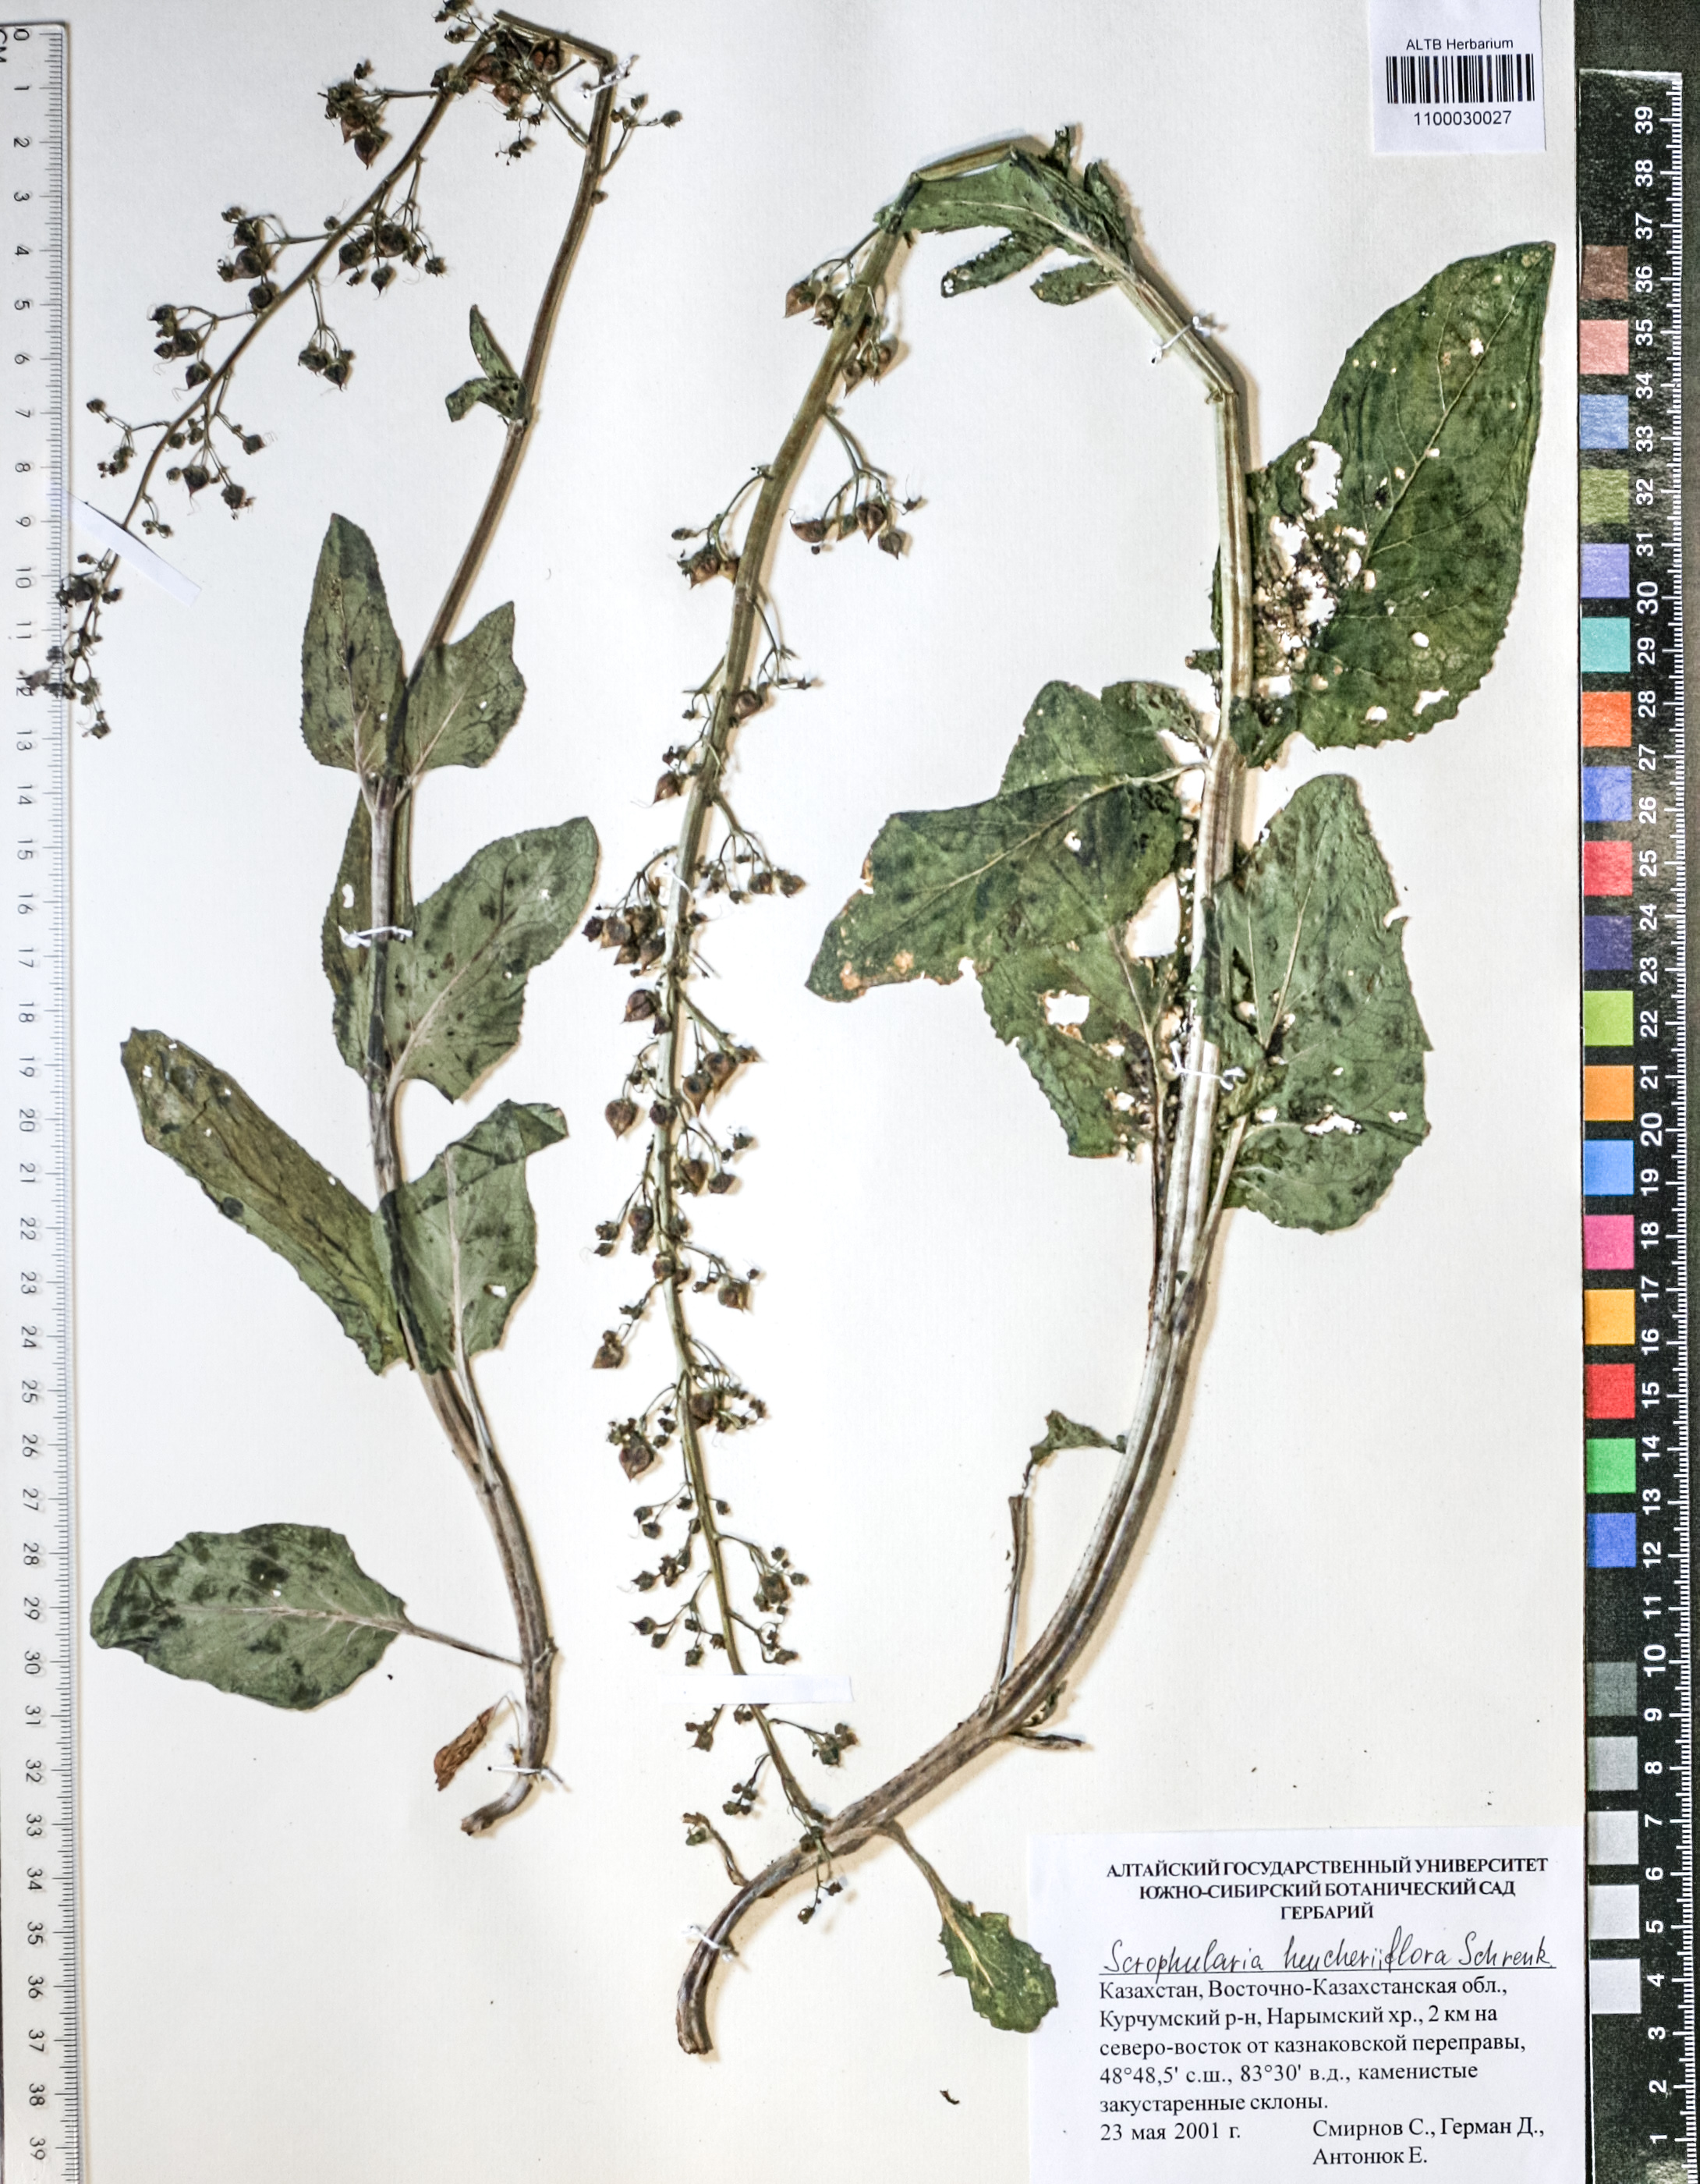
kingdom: Plantae
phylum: Tracheophyta
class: Magnoliopsida
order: Lamiales
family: Scrophulariaceae
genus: Scrophularia
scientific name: Scrophularia heucheriflora
